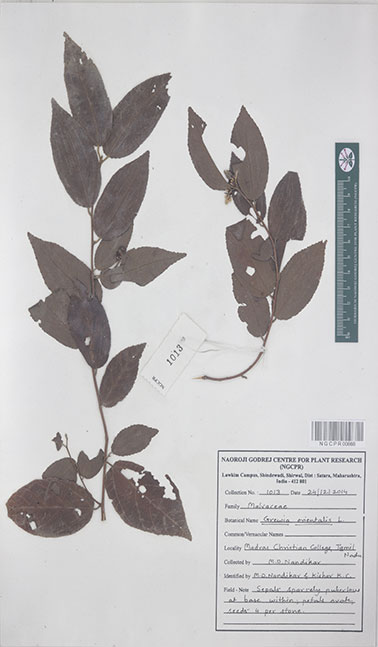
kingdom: Plantae
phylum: Tracheophyta
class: Magnoliopsida
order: Malvales
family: Malvaceae
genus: Grewia
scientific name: Grewia orientalis
